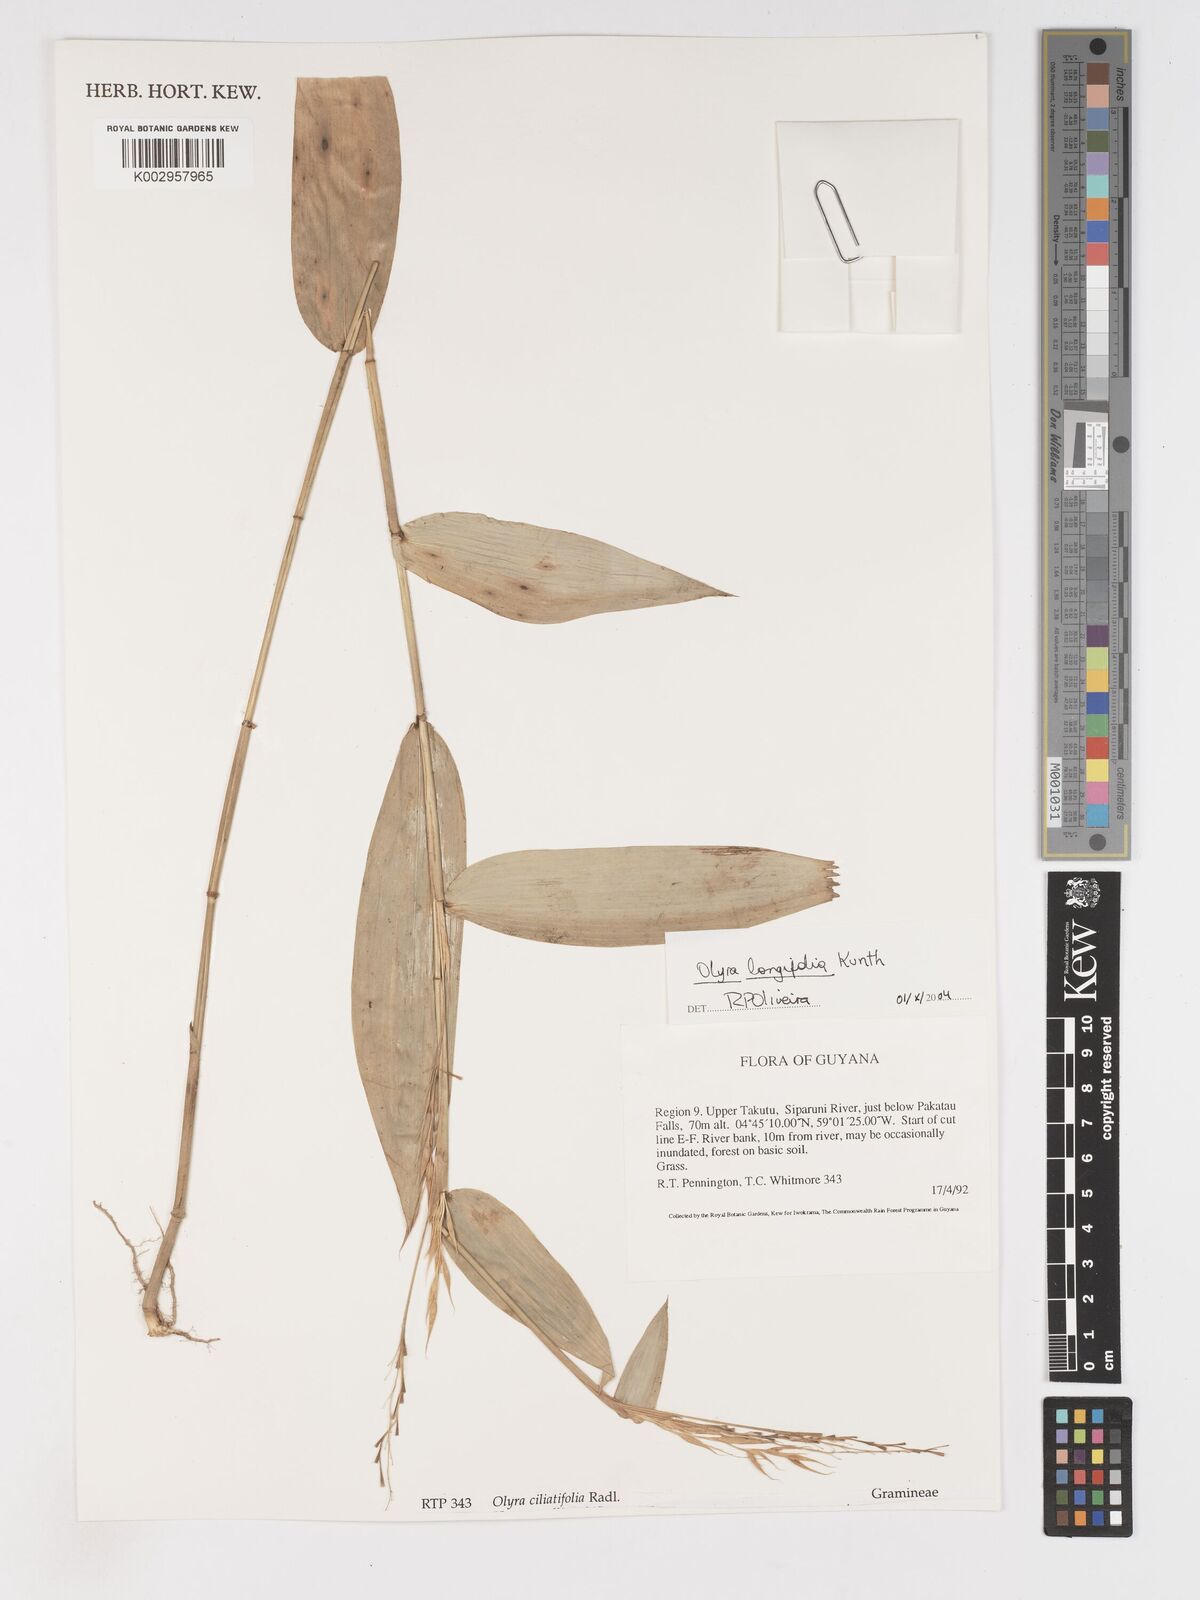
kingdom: Plantae
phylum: Tracheophyta
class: Liliopsida
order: Poales
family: Poaceae
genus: Olyra
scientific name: Olyra longifolia
